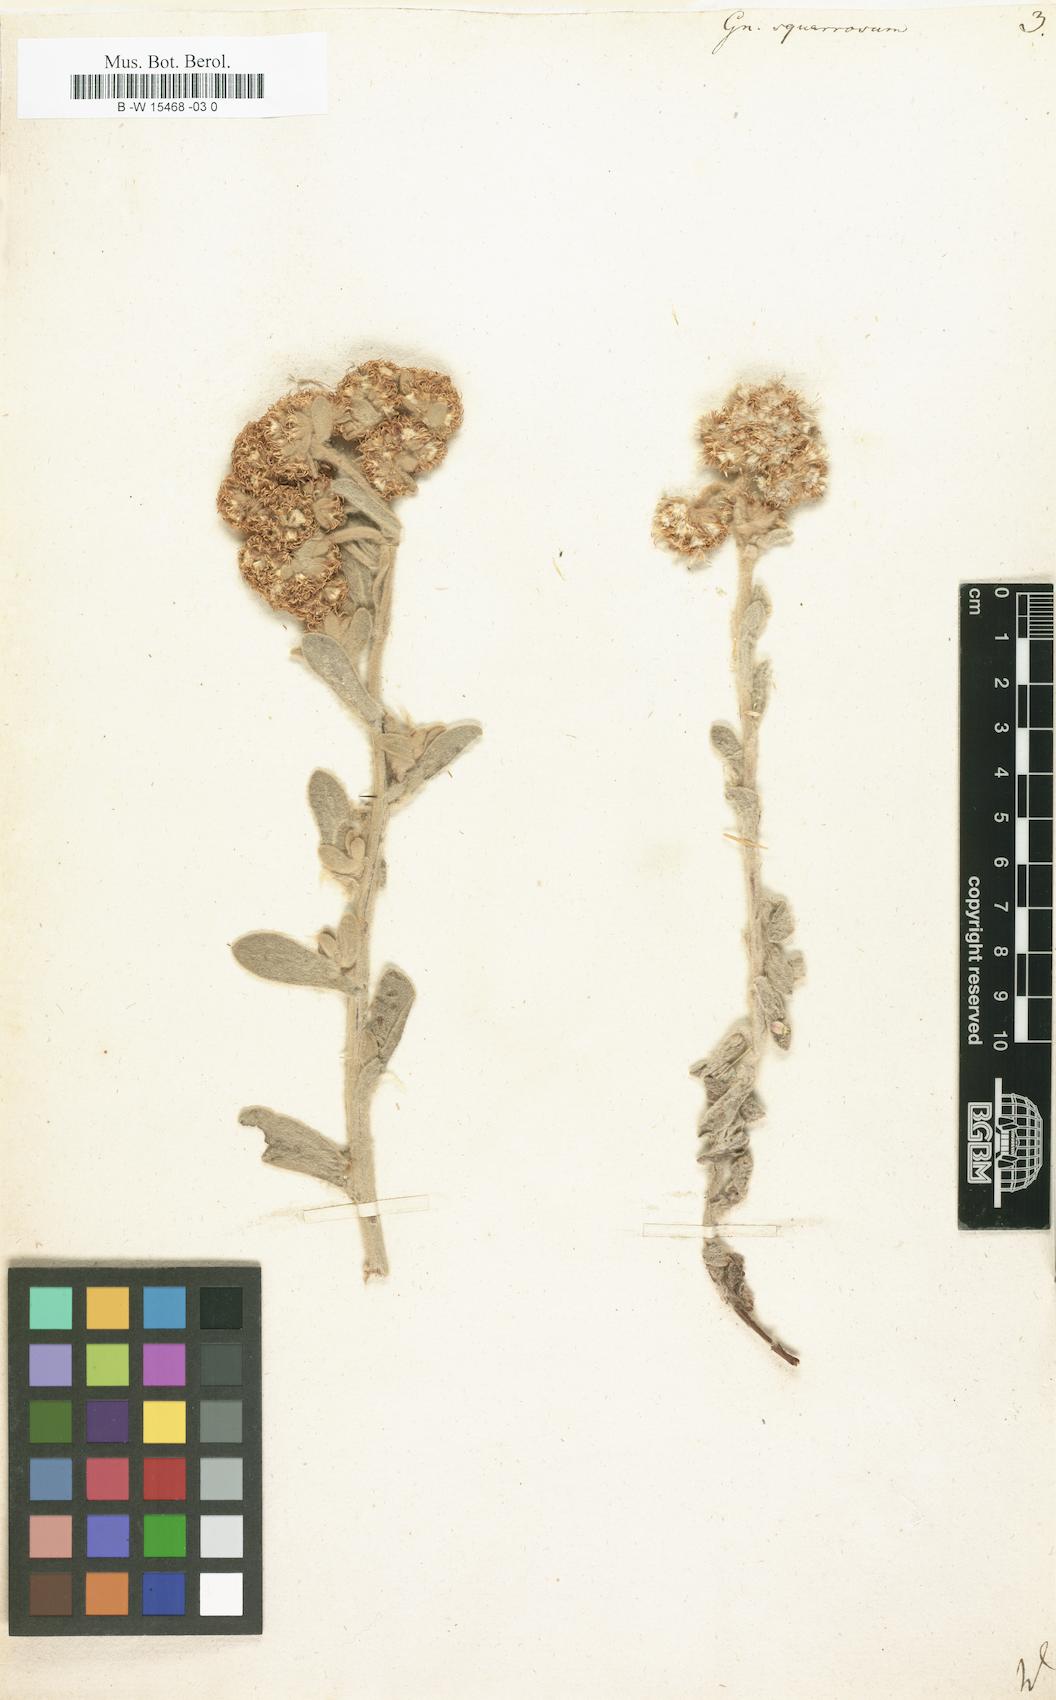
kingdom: Plantae
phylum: Tracheophyta
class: Magnoliopsida
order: Asterales
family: Asteraceae
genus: Helichrysum
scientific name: Helichrysum spiralepis
